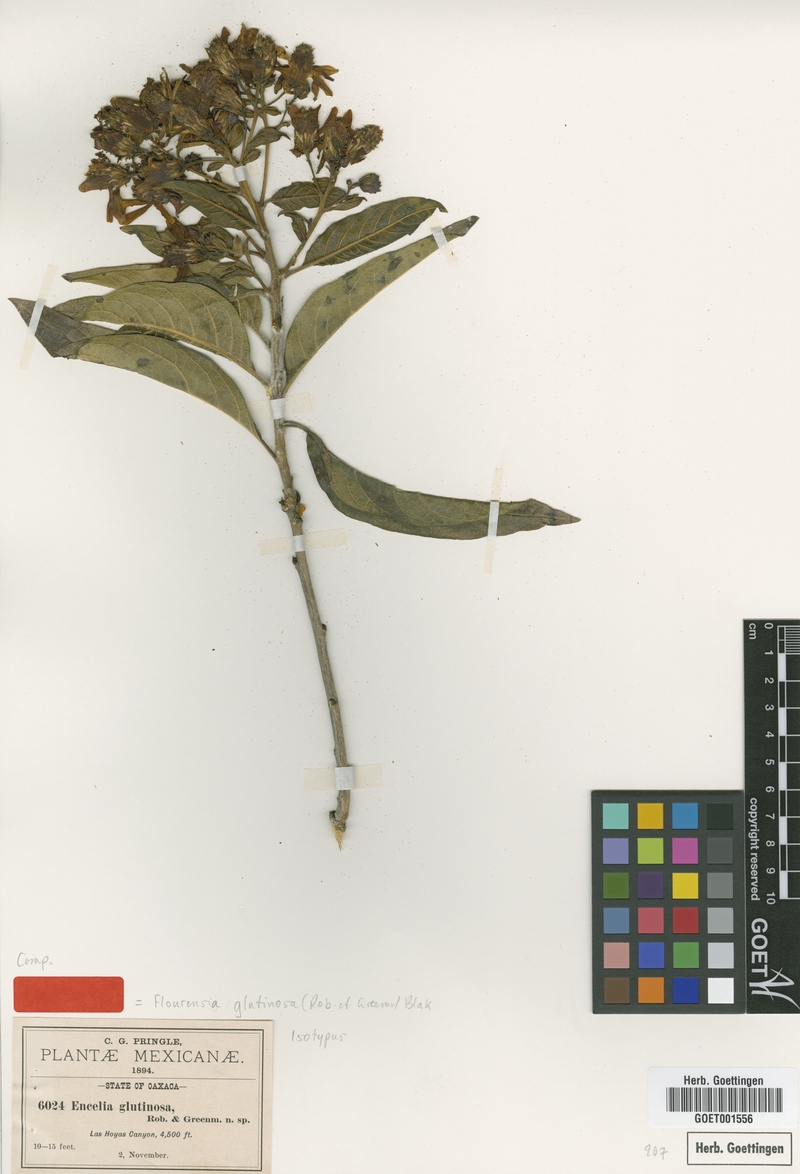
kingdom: Plantae
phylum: Tracheophyta
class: Magnoliopsida
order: Asterales
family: Asteraceae
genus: Flourensia
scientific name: Flourensia glutinosa
